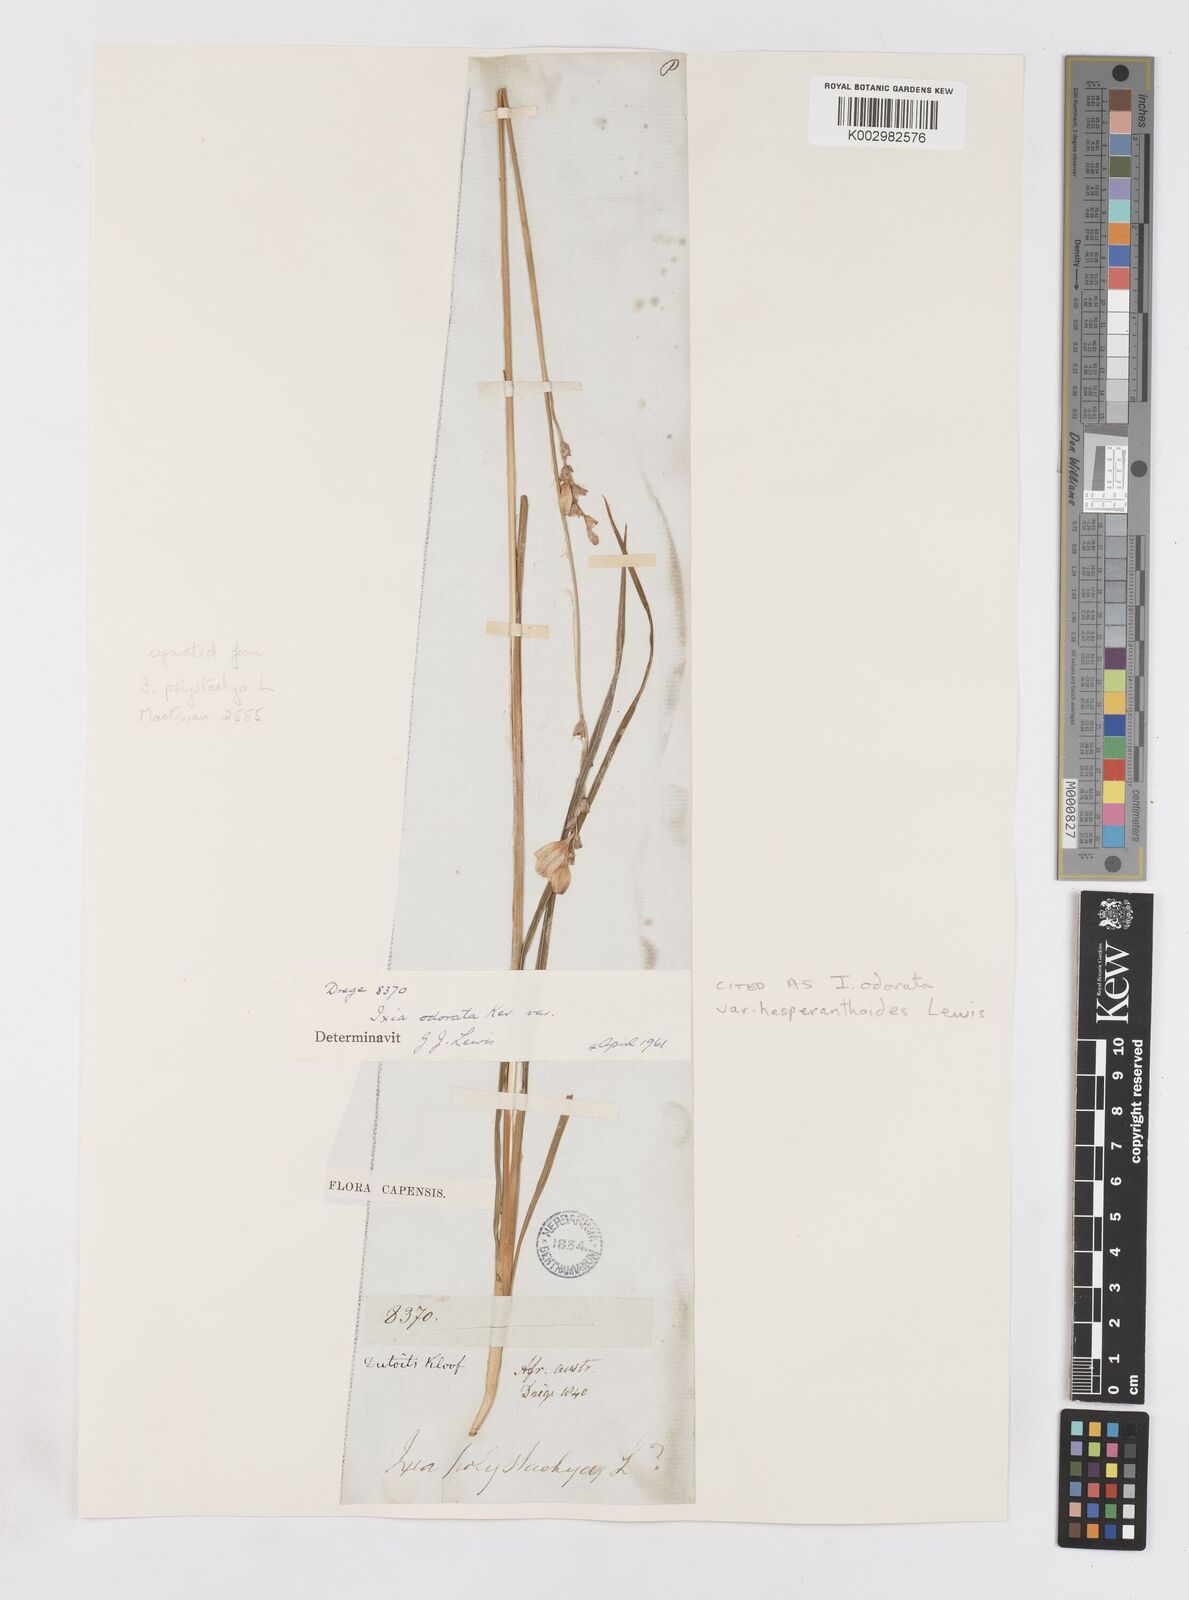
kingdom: Plantae
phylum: Tracheophyta
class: Liliopsida
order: Asparagales
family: Iridaceae
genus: Ixia
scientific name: Ixia odorata
